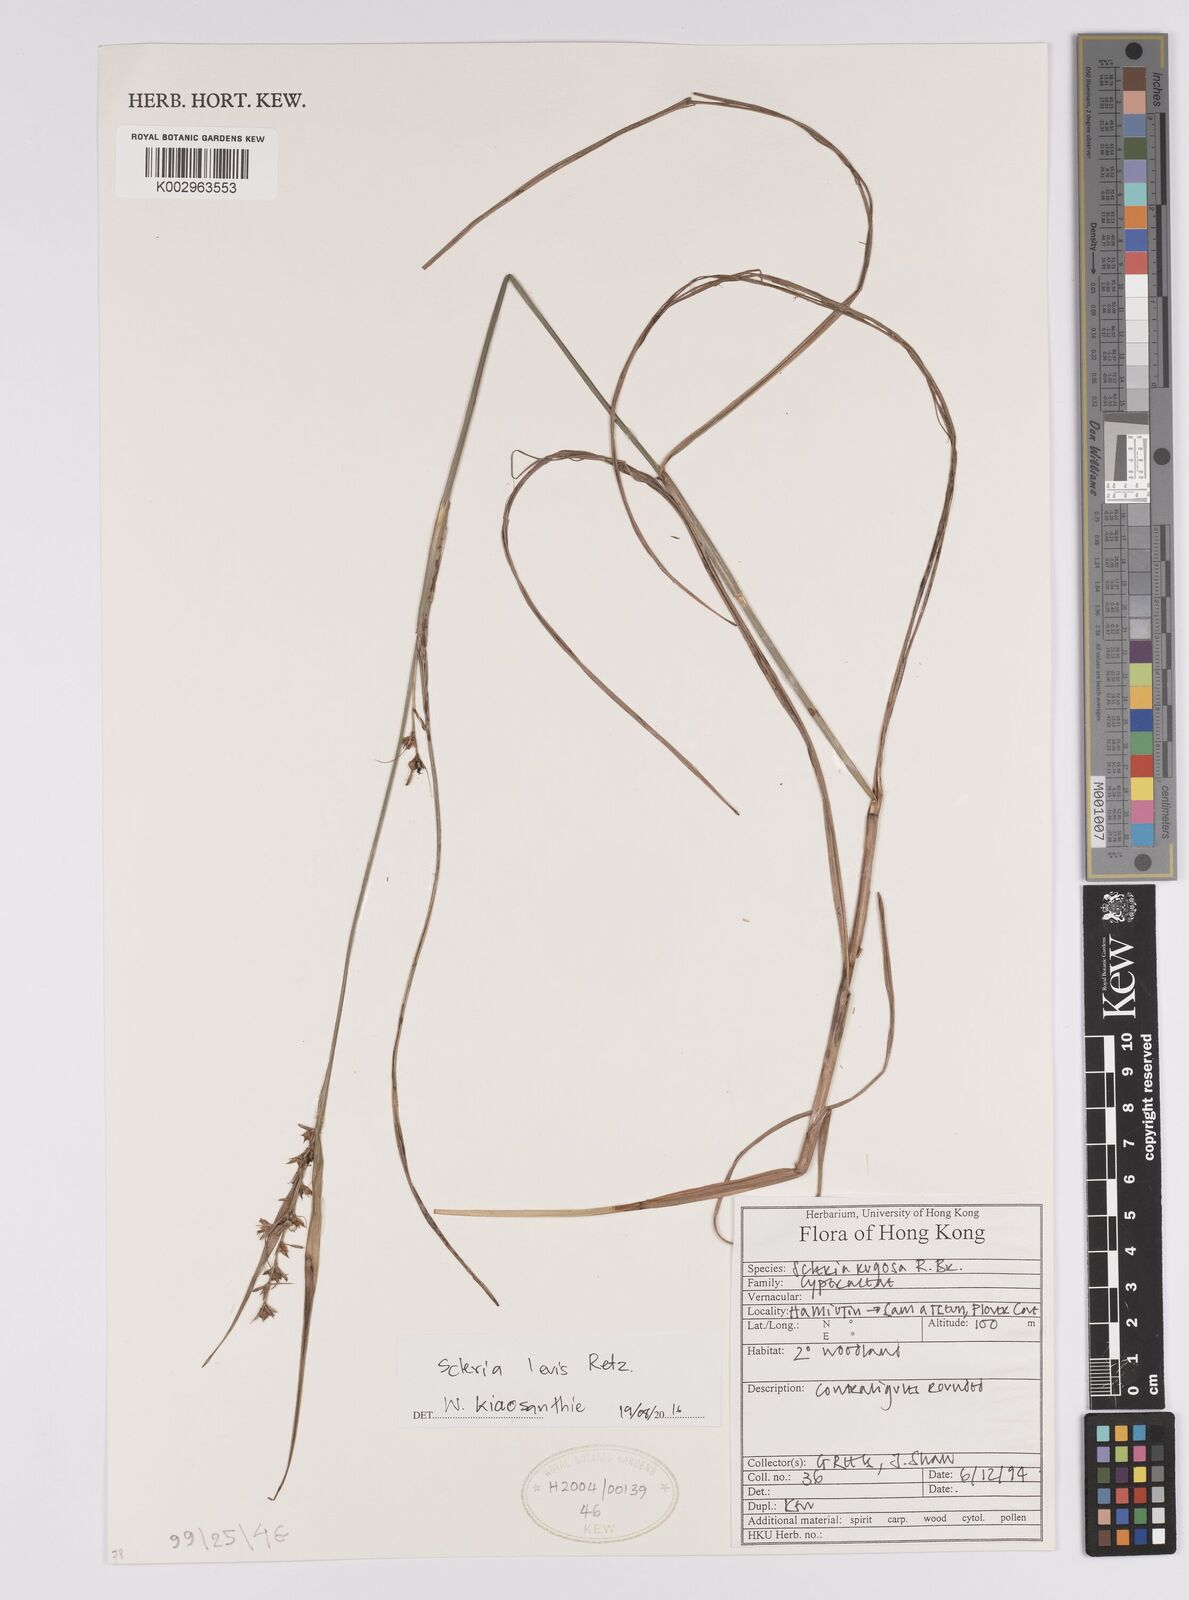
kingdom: Plantae
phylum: Tracheophyta
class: Liliopsida
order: Poales
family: Cyperaceae
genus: Scleria
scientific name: Scleria levis
